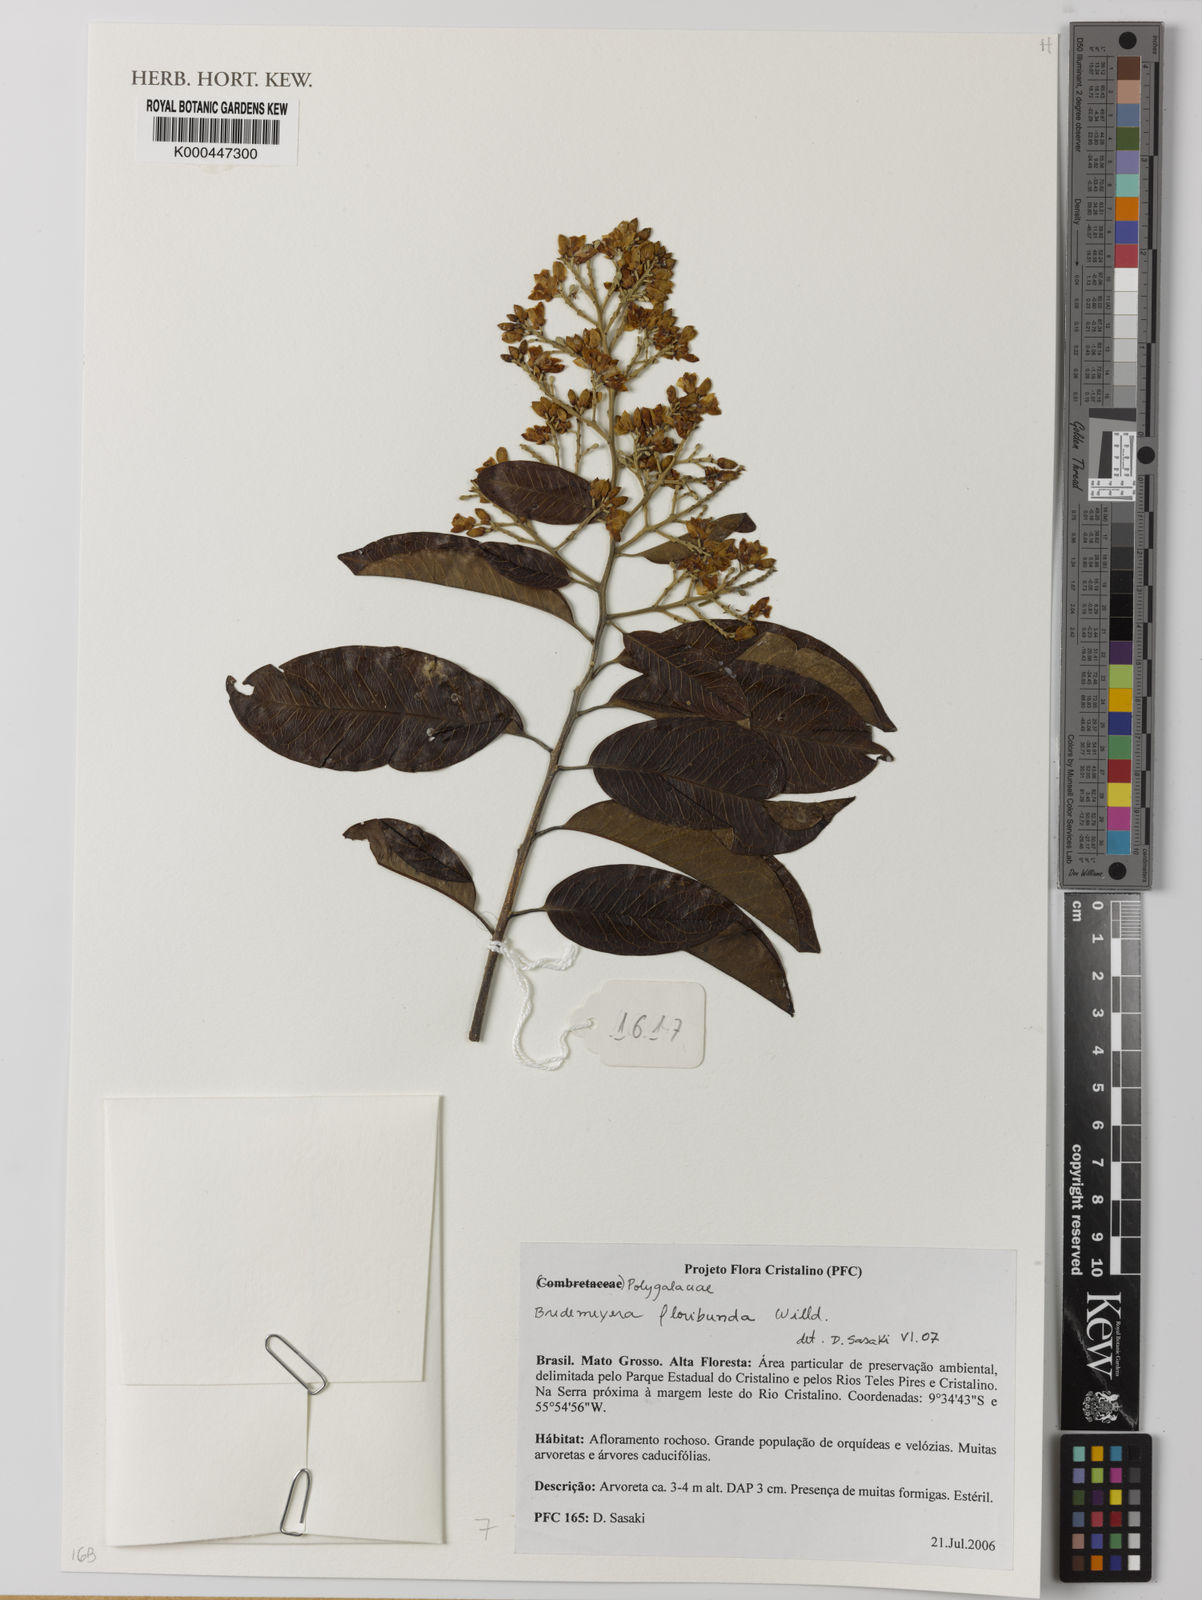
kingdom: Plantae
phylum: Tracheophyta
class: Magnoliopsida
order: Fabales
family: Polygalaceae
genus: Bredemeyera
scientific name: Bredemeyera floribunda
